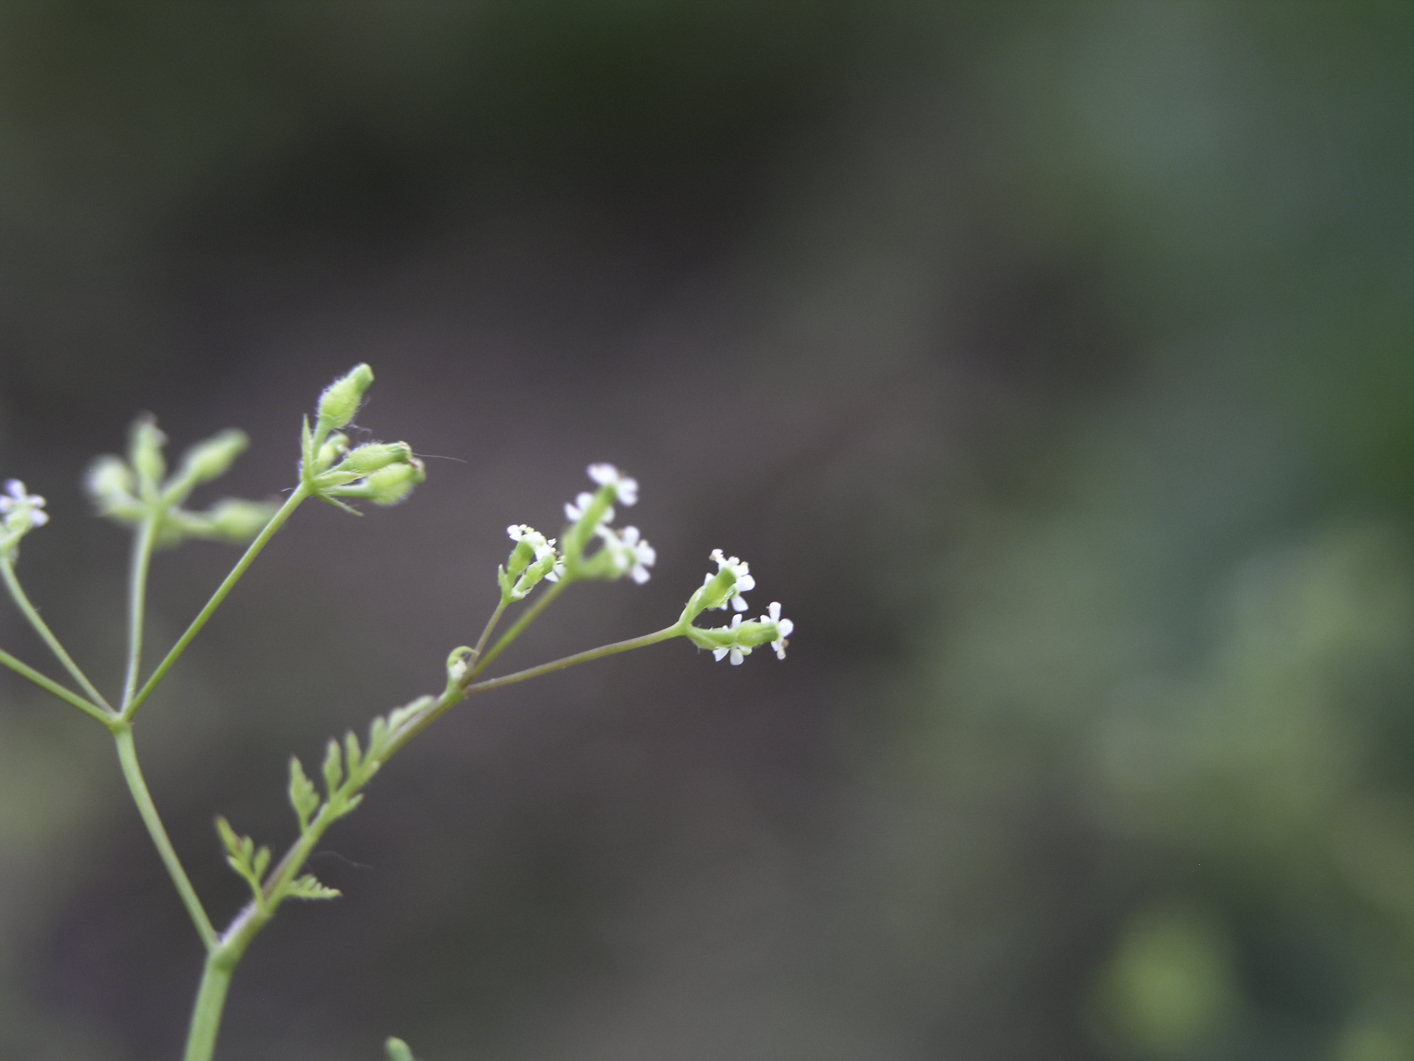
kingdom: Plantae
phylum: Tracheophyta
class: Magnoliopsida
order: Apiales
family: Apiaceae
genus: Torilis
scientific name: Torilis arvensis
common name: Spreading hedge-parsley
